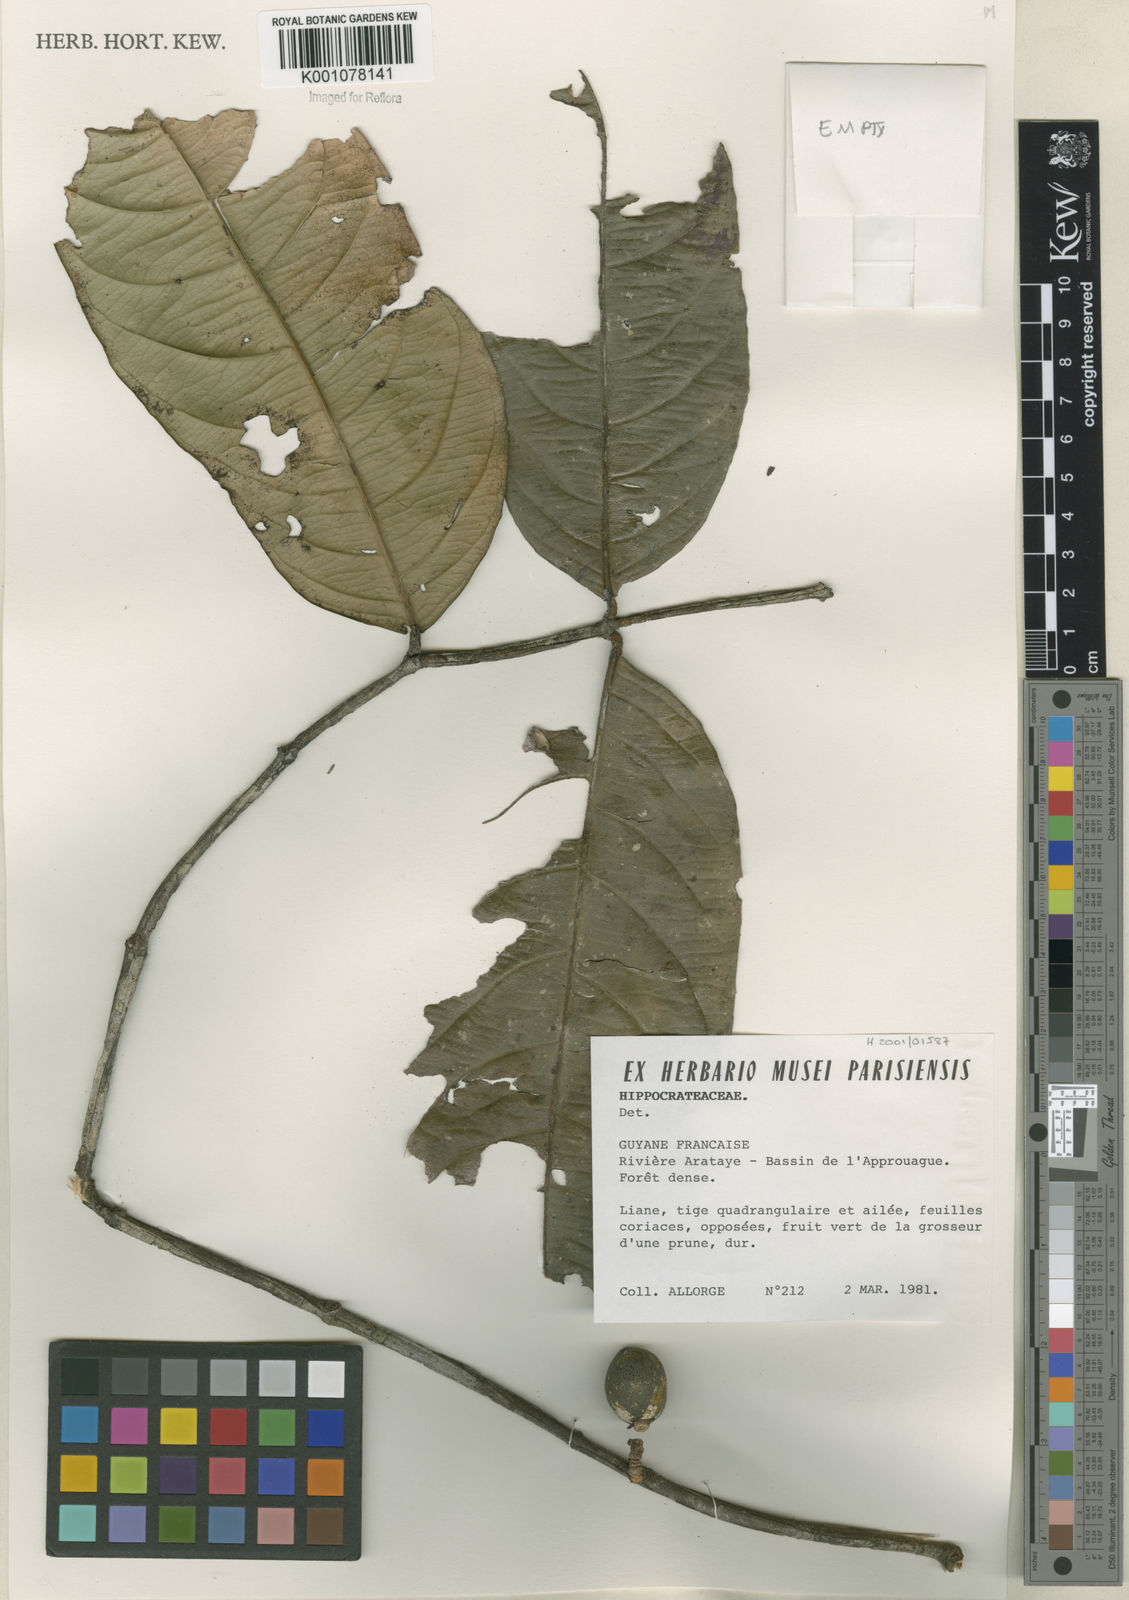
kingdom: Plantae
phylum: Tracheophyta
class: Magnoliopsida
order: Celastrales
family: Celastraceae
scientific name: Celastraceae
